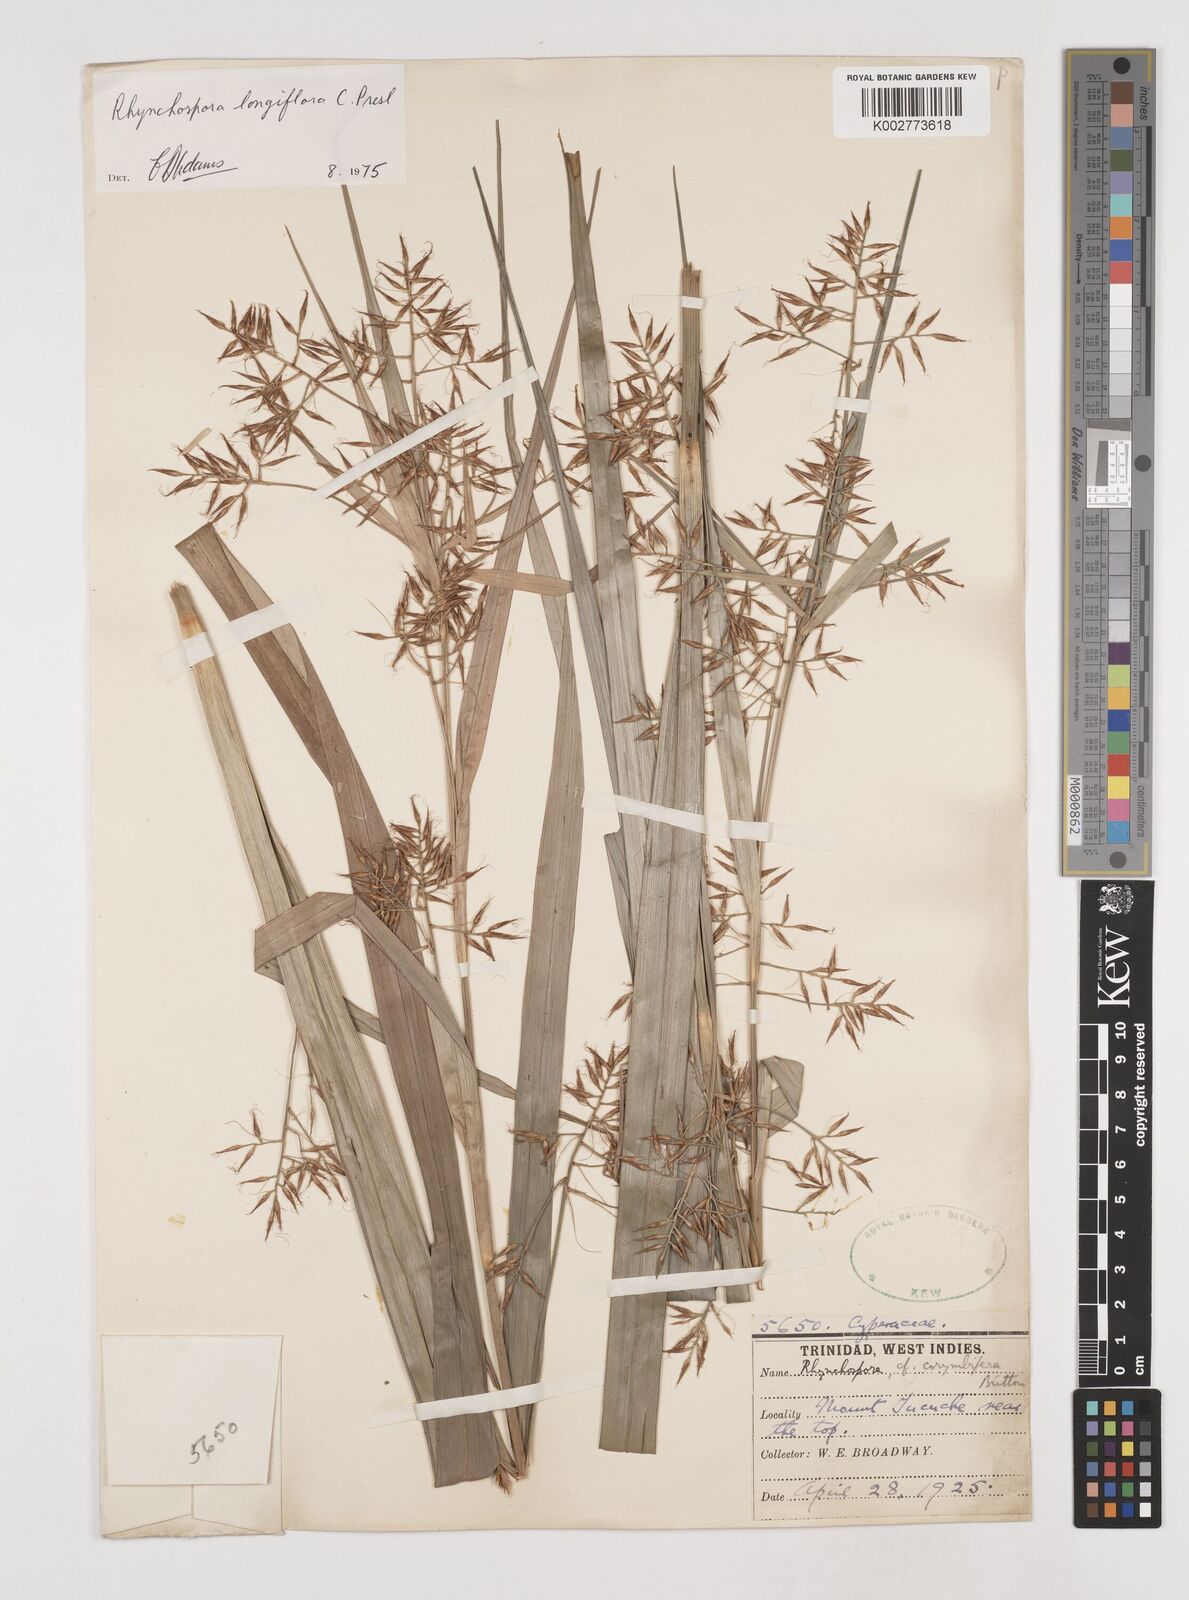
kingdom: Plantae
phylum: Tracheophyta
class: Liliopsida
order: Poales
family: Cyperaceae
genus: Rhynchospora
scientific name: Rhynchospora longiflora
